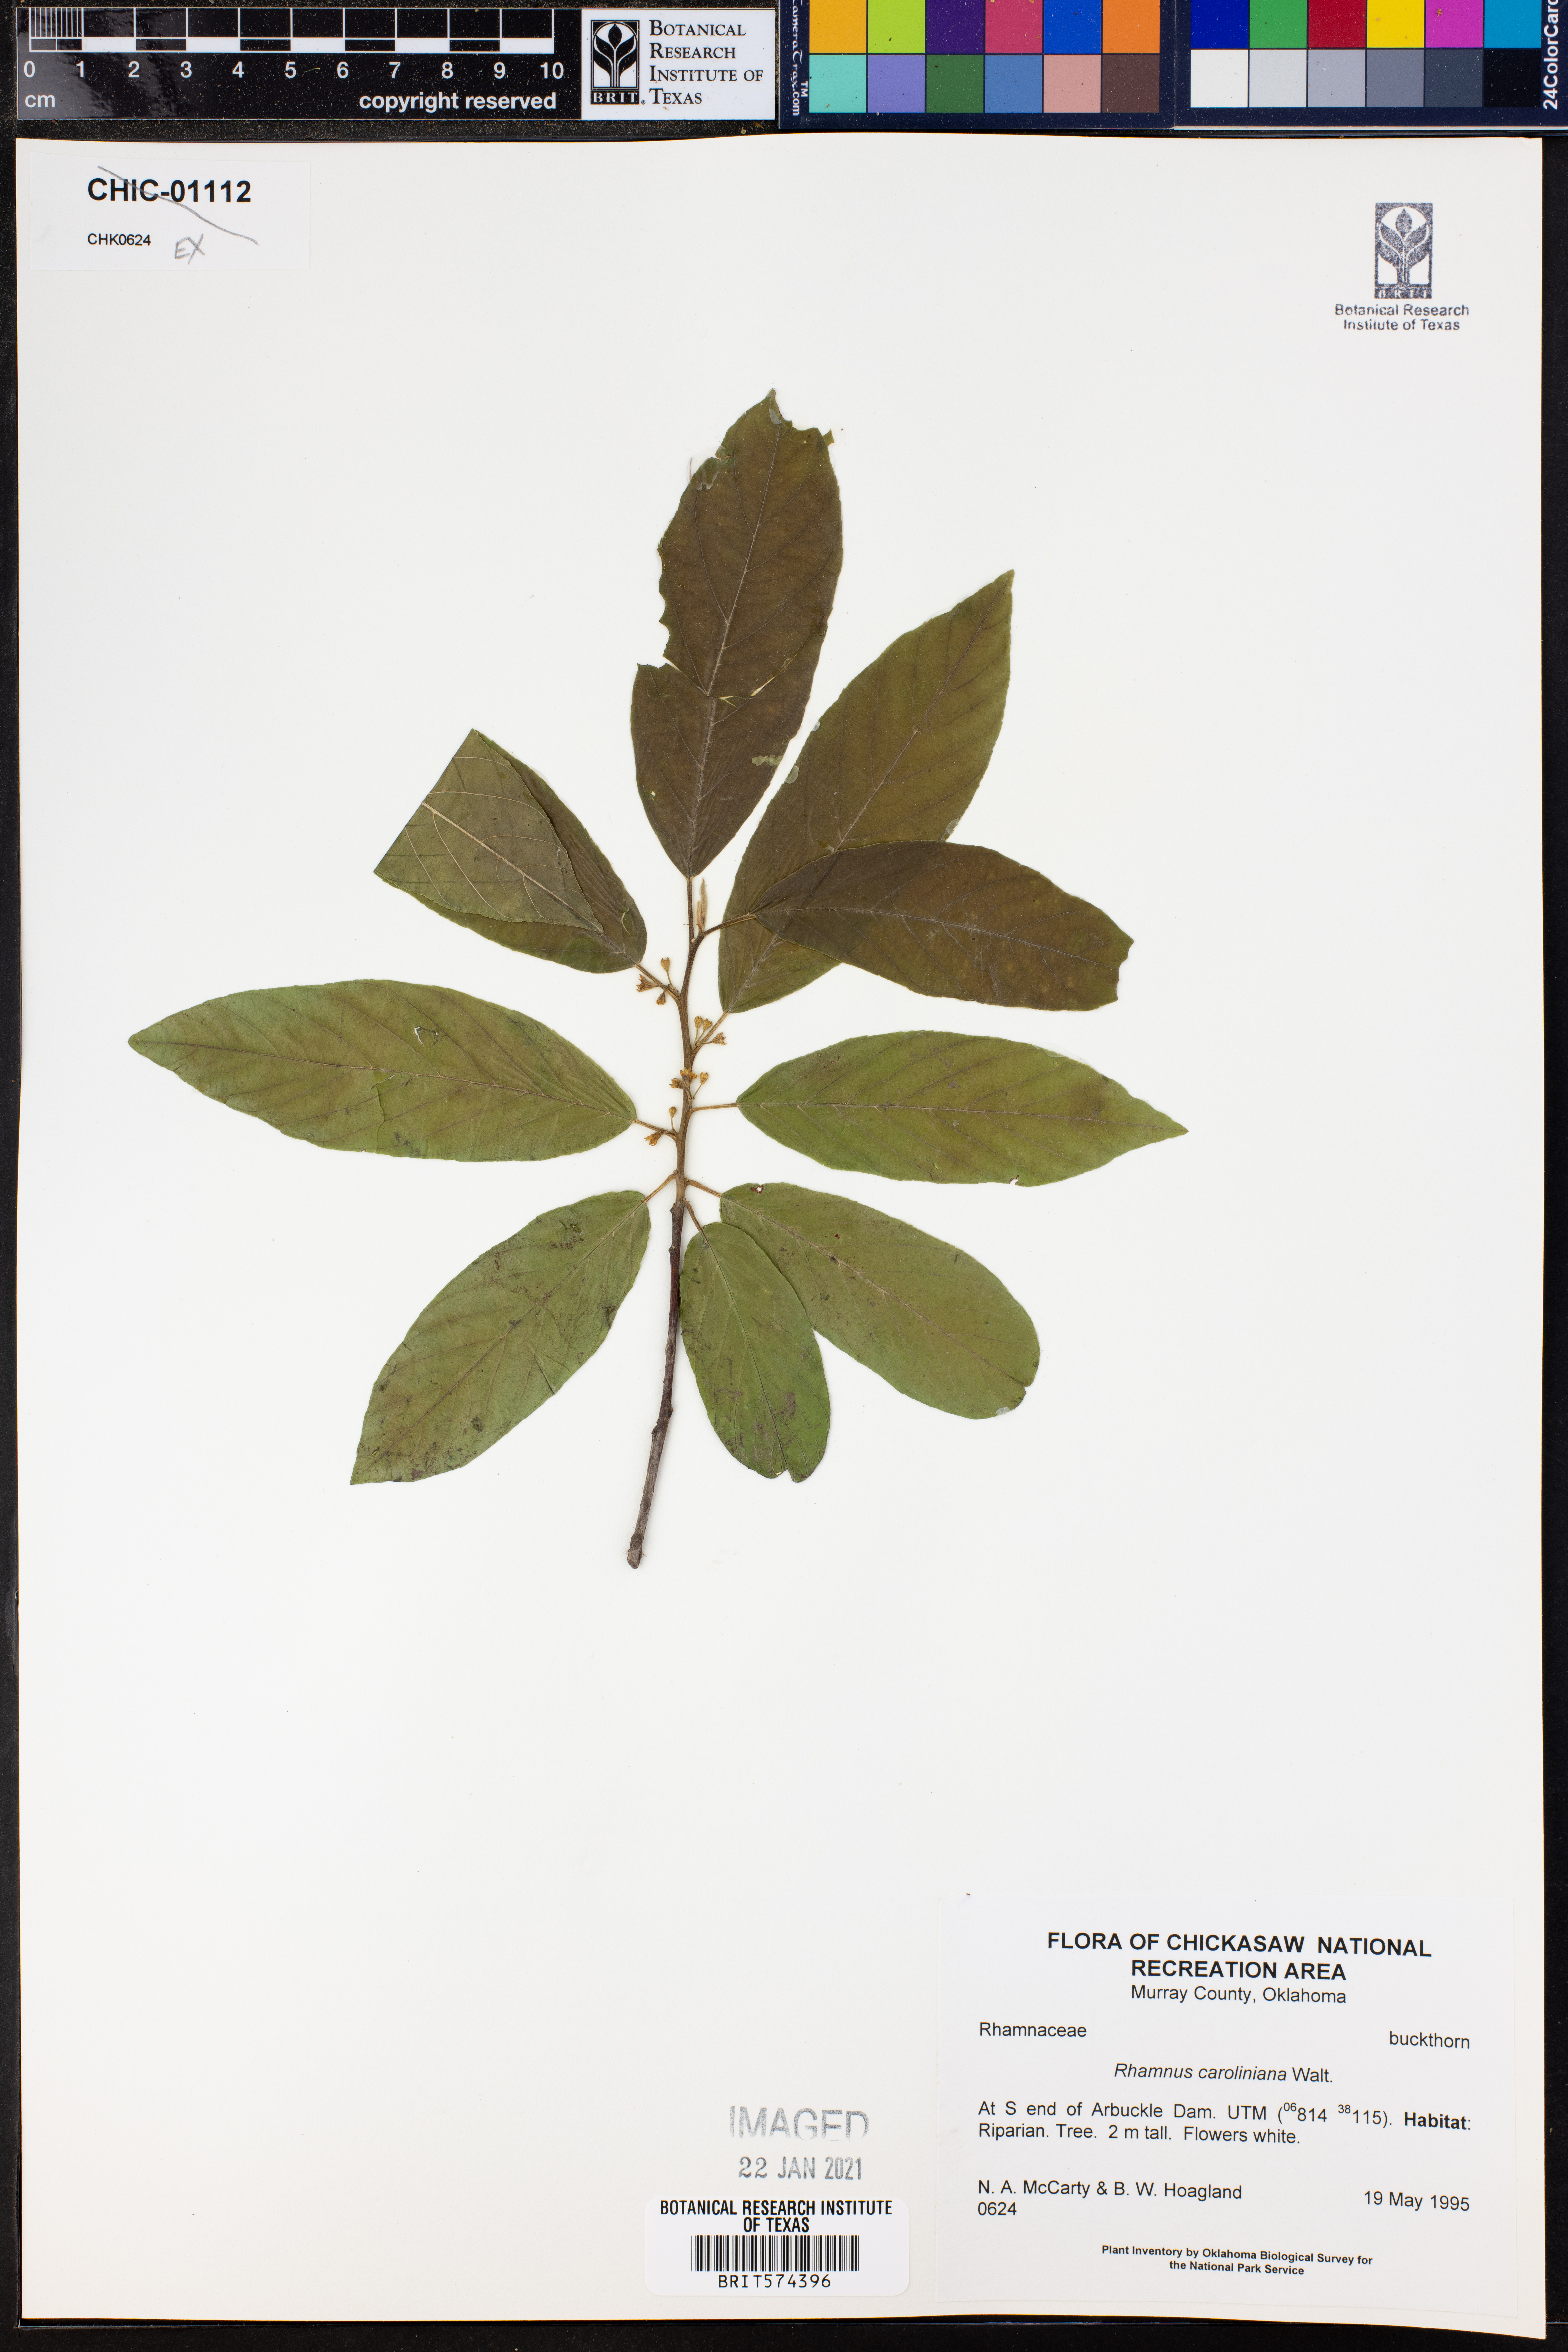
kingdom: Plantae
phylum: Tracheophyta
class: Magnoliopsida
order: Rosales
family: Rhamnaceae
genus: Frangula
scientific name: Frangula caroliniana
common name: Carolina buckthorn
